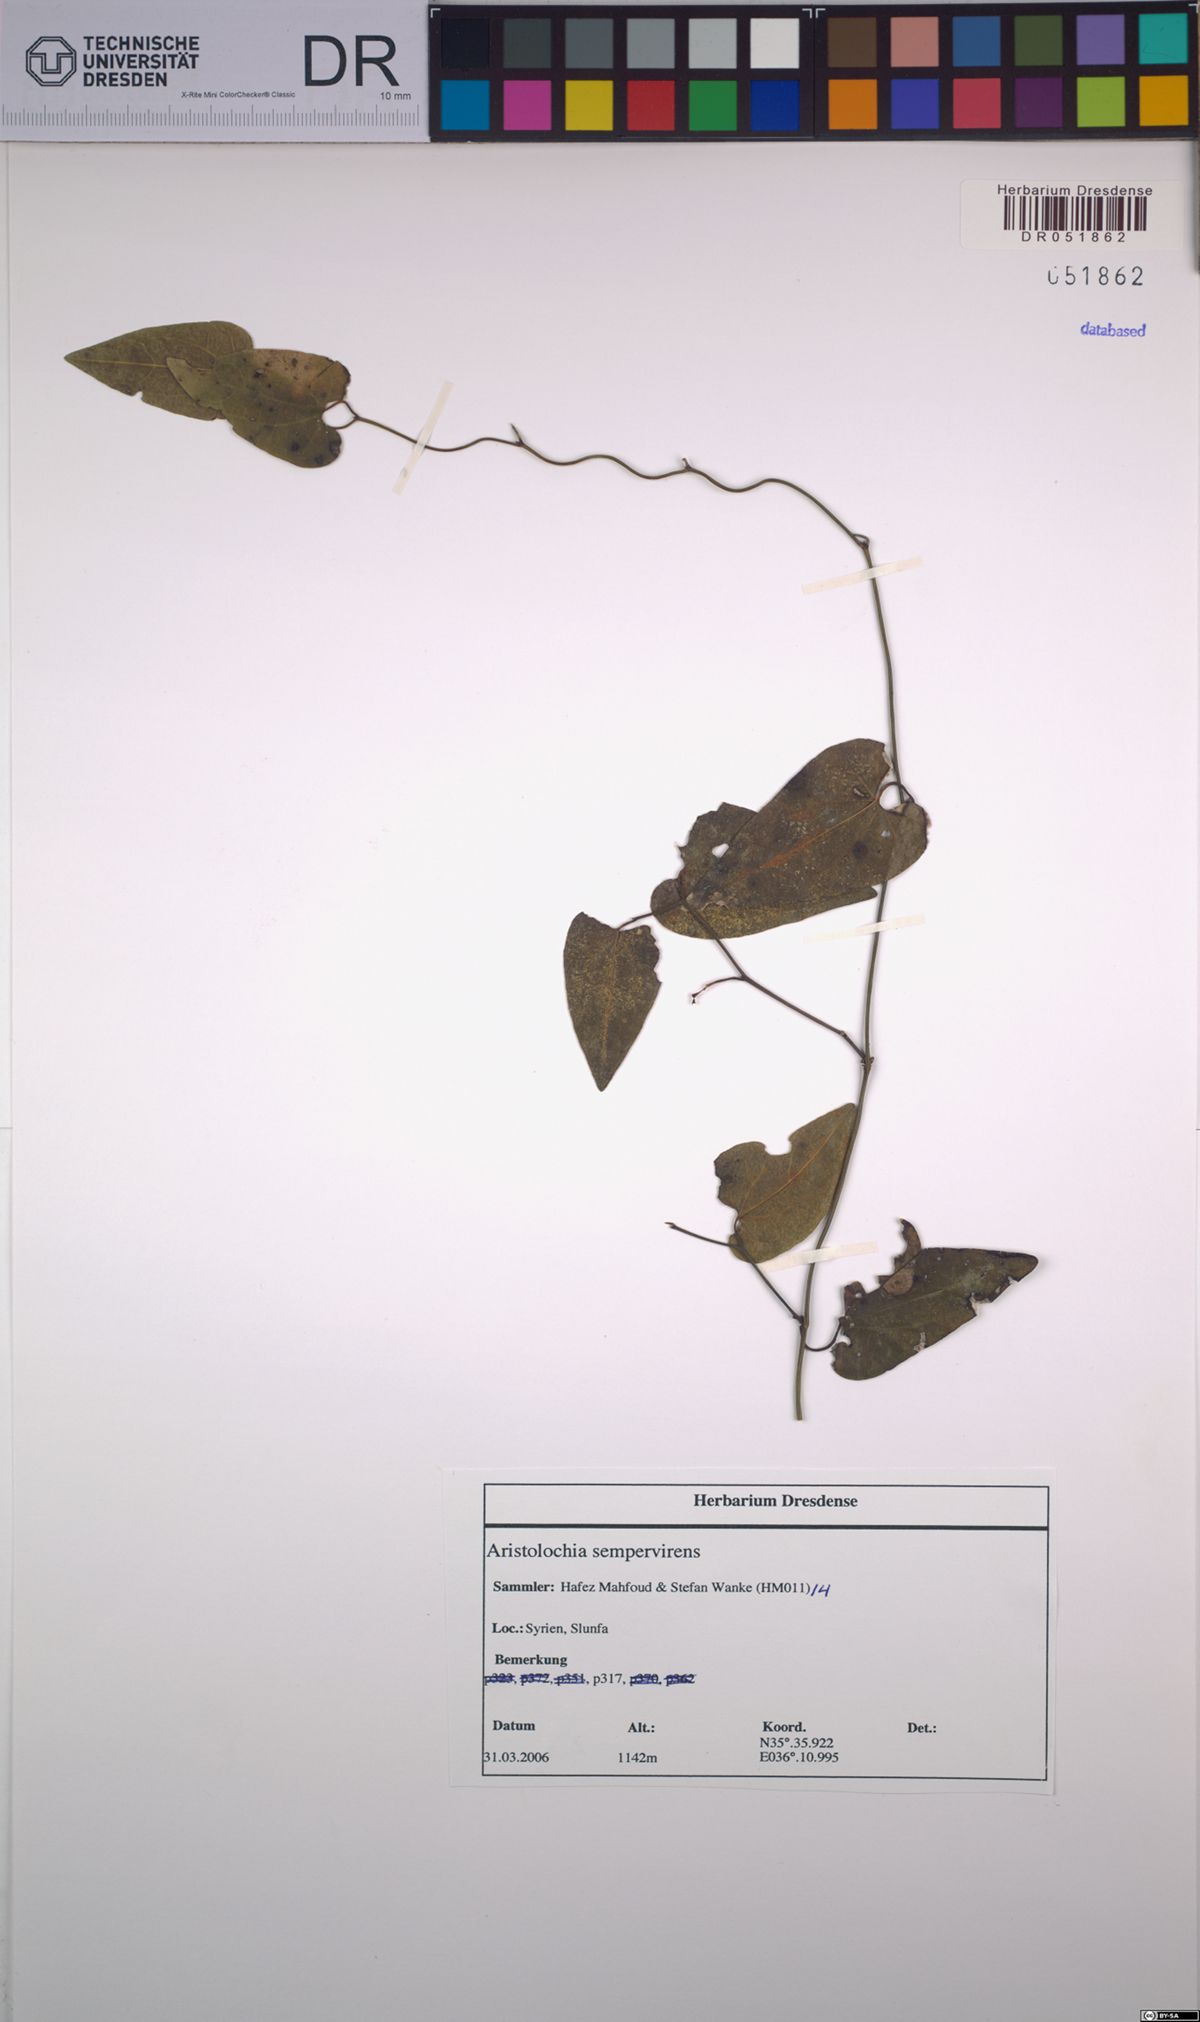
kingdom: Plantae
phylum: Tracheophyta
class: Magnoliopsida
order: Piperales
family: Aristolochiaceae
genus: Aristolochia
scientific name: Aristolochia sempervirens
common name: Long birthwort
